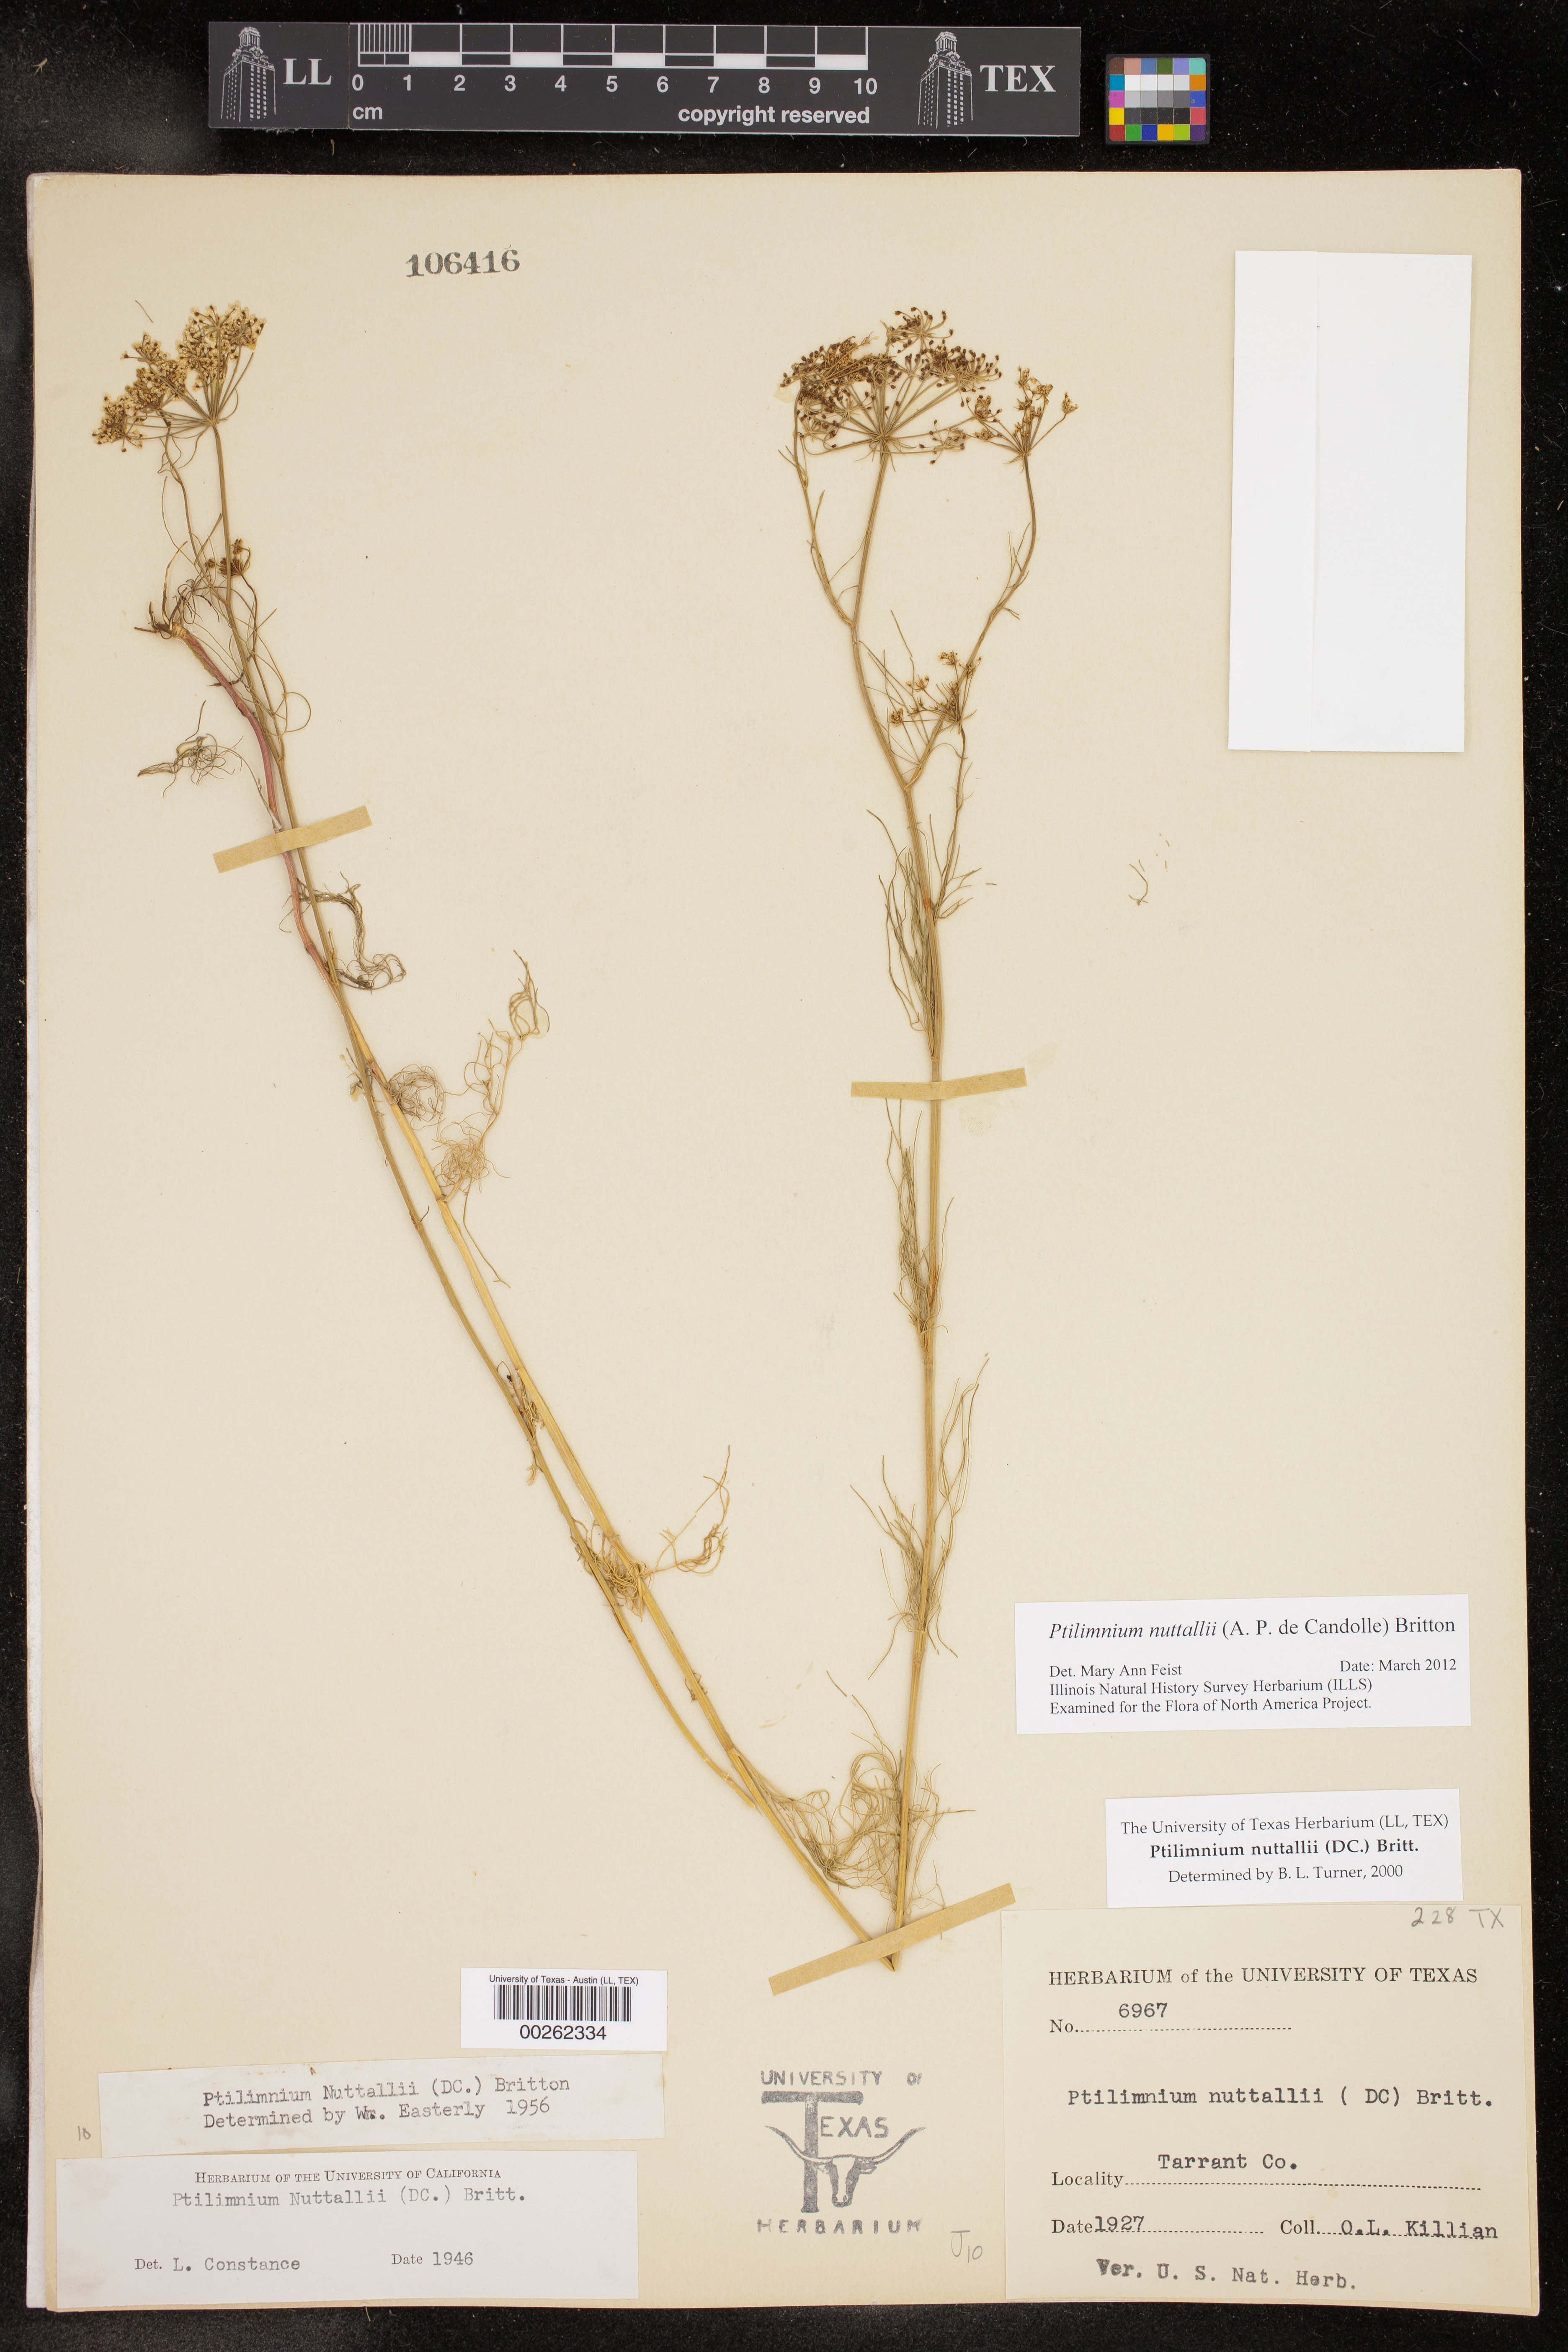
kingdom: Plantae
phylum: Tracheophyta
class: Magnoliopsida
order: Apiales
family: Apiaceae
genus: Ptilimnium
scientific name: Ptilimnium nuttallii
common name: Ozark bishop's-weed
